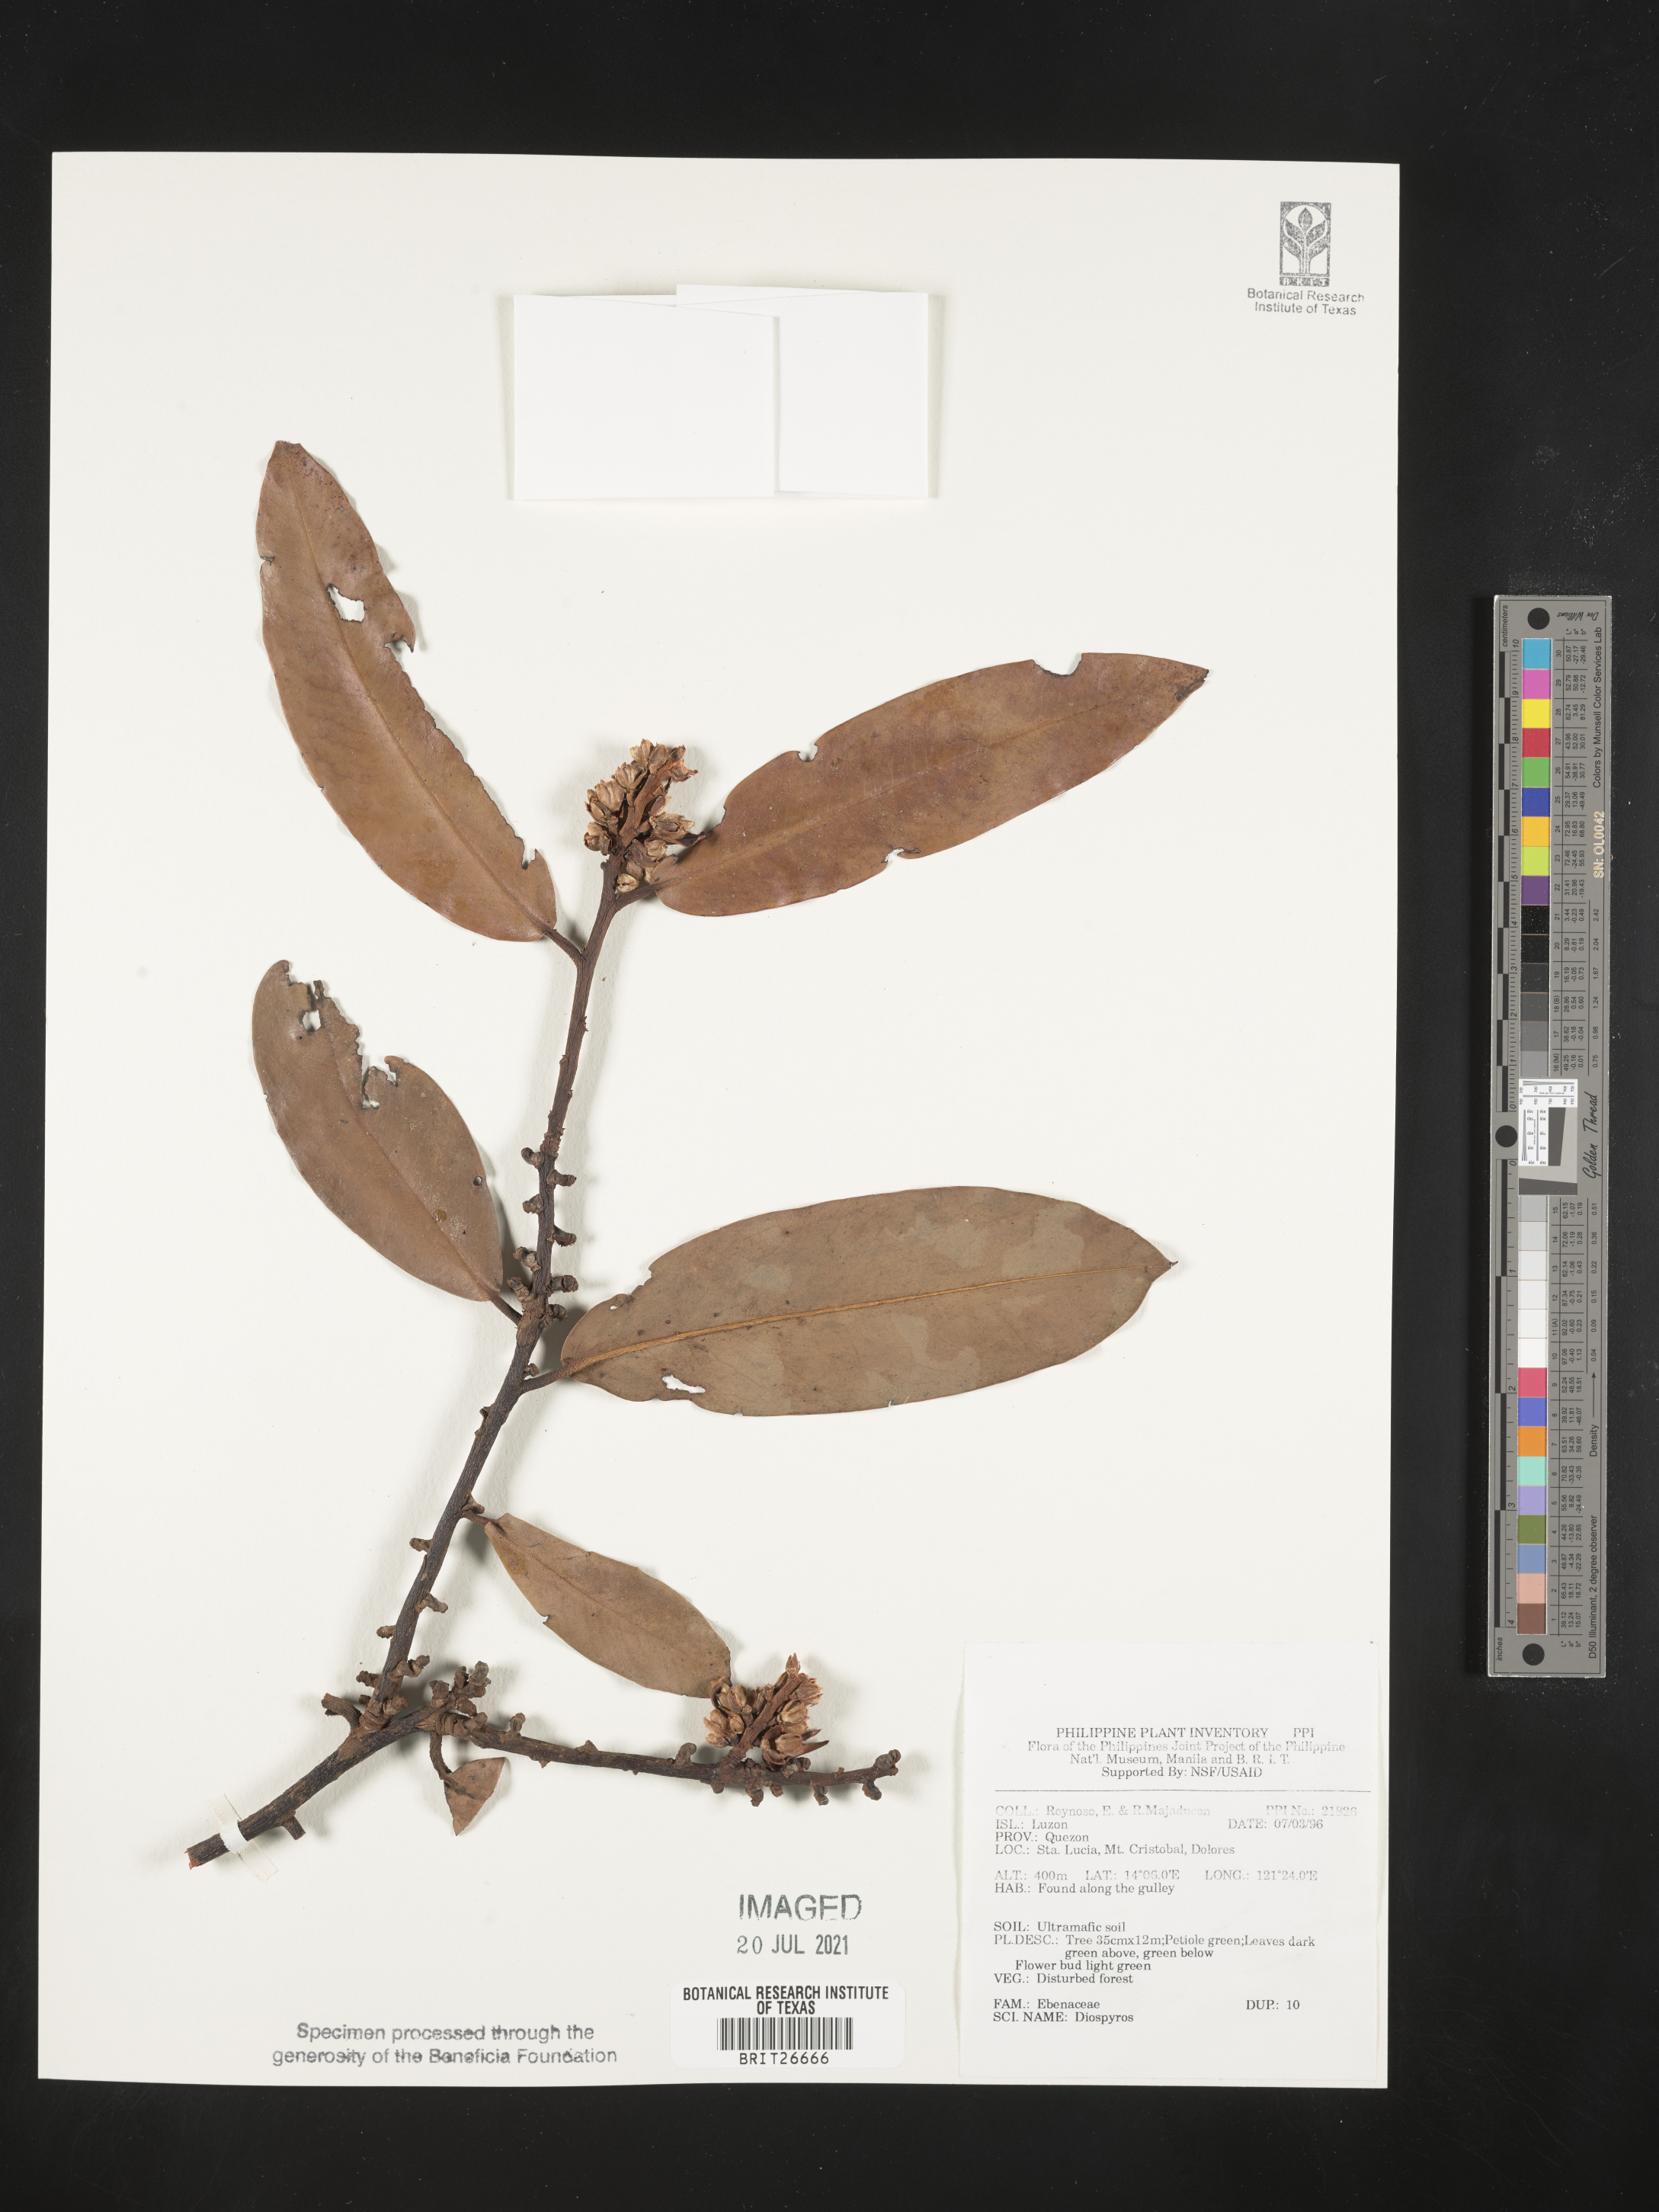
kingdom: Plantae
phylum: Tracheophyta
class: Magnoliopsida
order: Ericales
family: Ebenaceae
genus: Diospyros
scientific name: Diospyros
